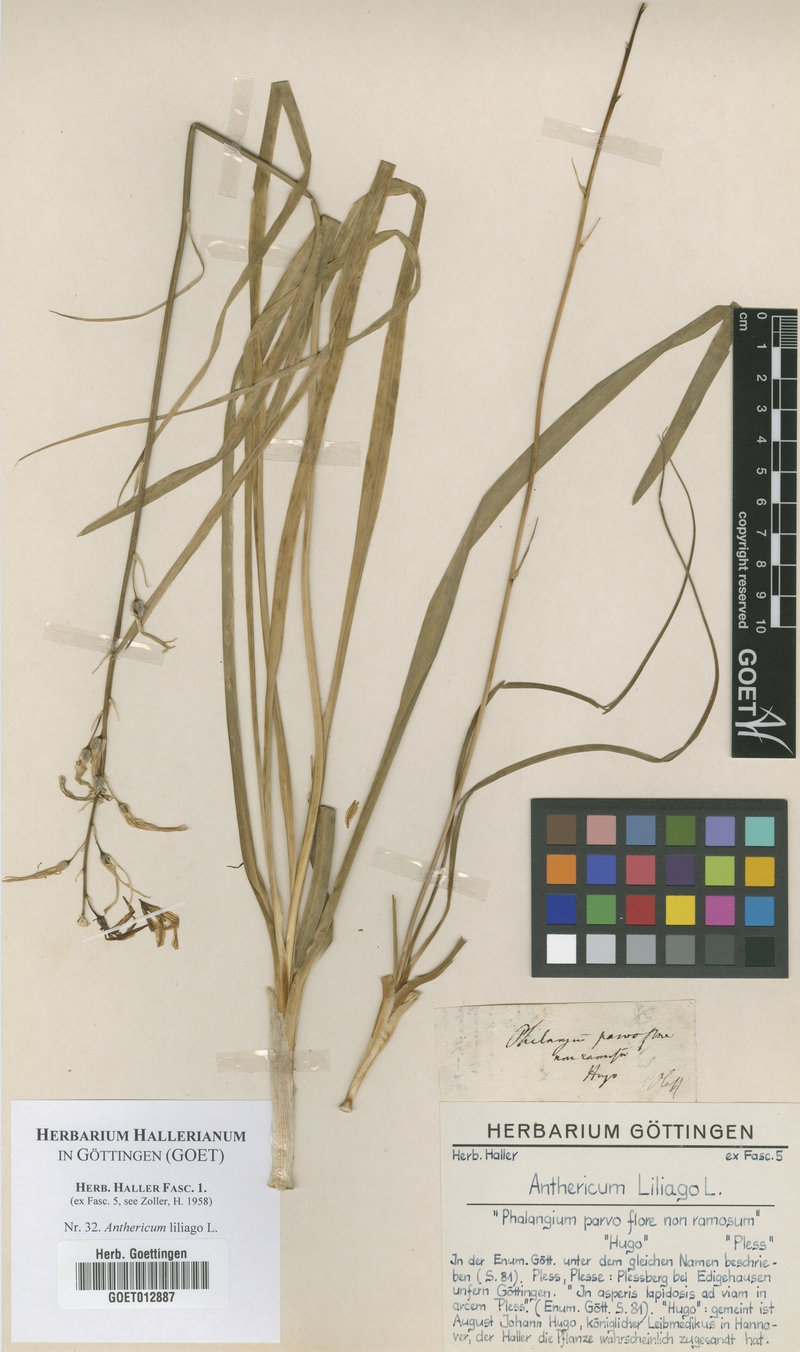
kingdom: Plantae
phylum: Tracheophyta
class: Liliopsida
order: Asparagales
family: Asparagaceae
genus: Anthericum
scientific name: Anthericum liliago
